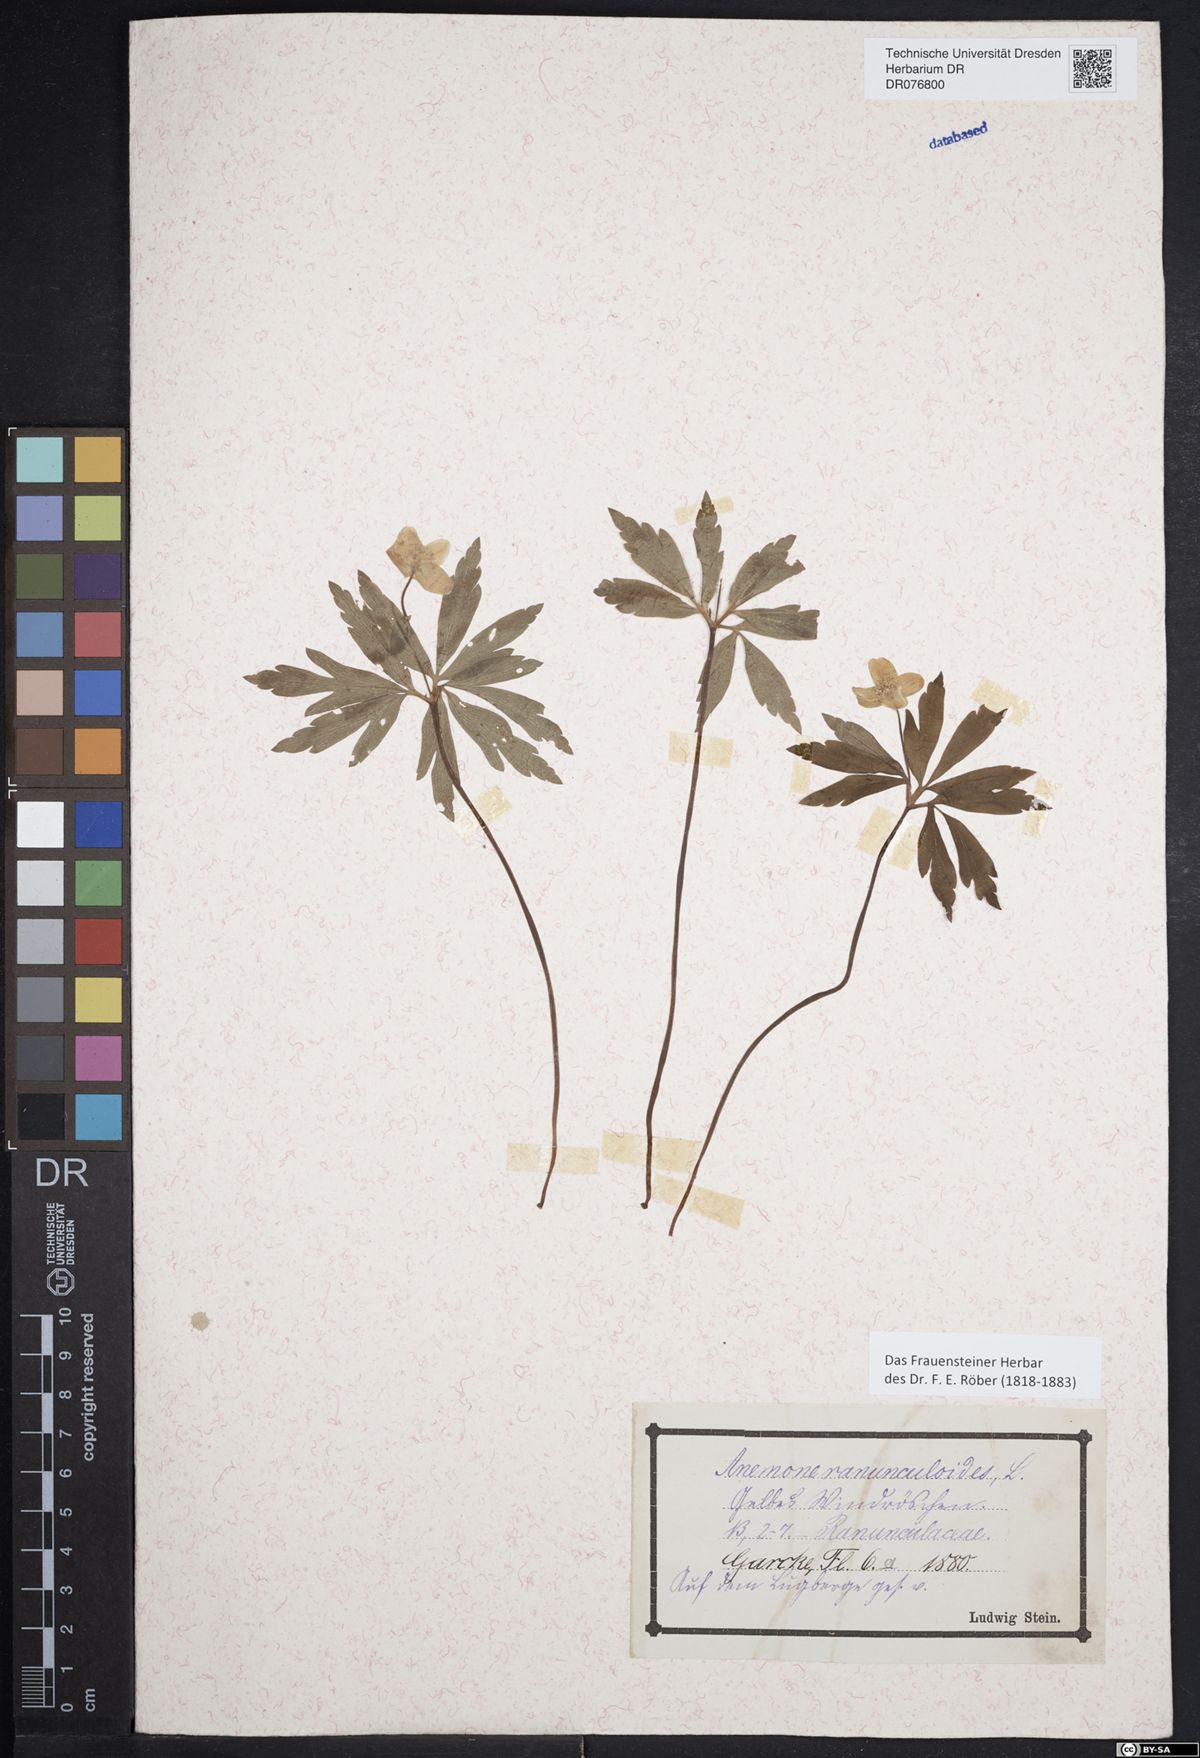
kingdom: Plantae
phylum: Tracheophyta
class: Magnoliopsida
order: Ranunculales
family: Ranunculaceae
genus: Anemone
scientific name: Anemone ranunculoides
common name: Yellow anemone
